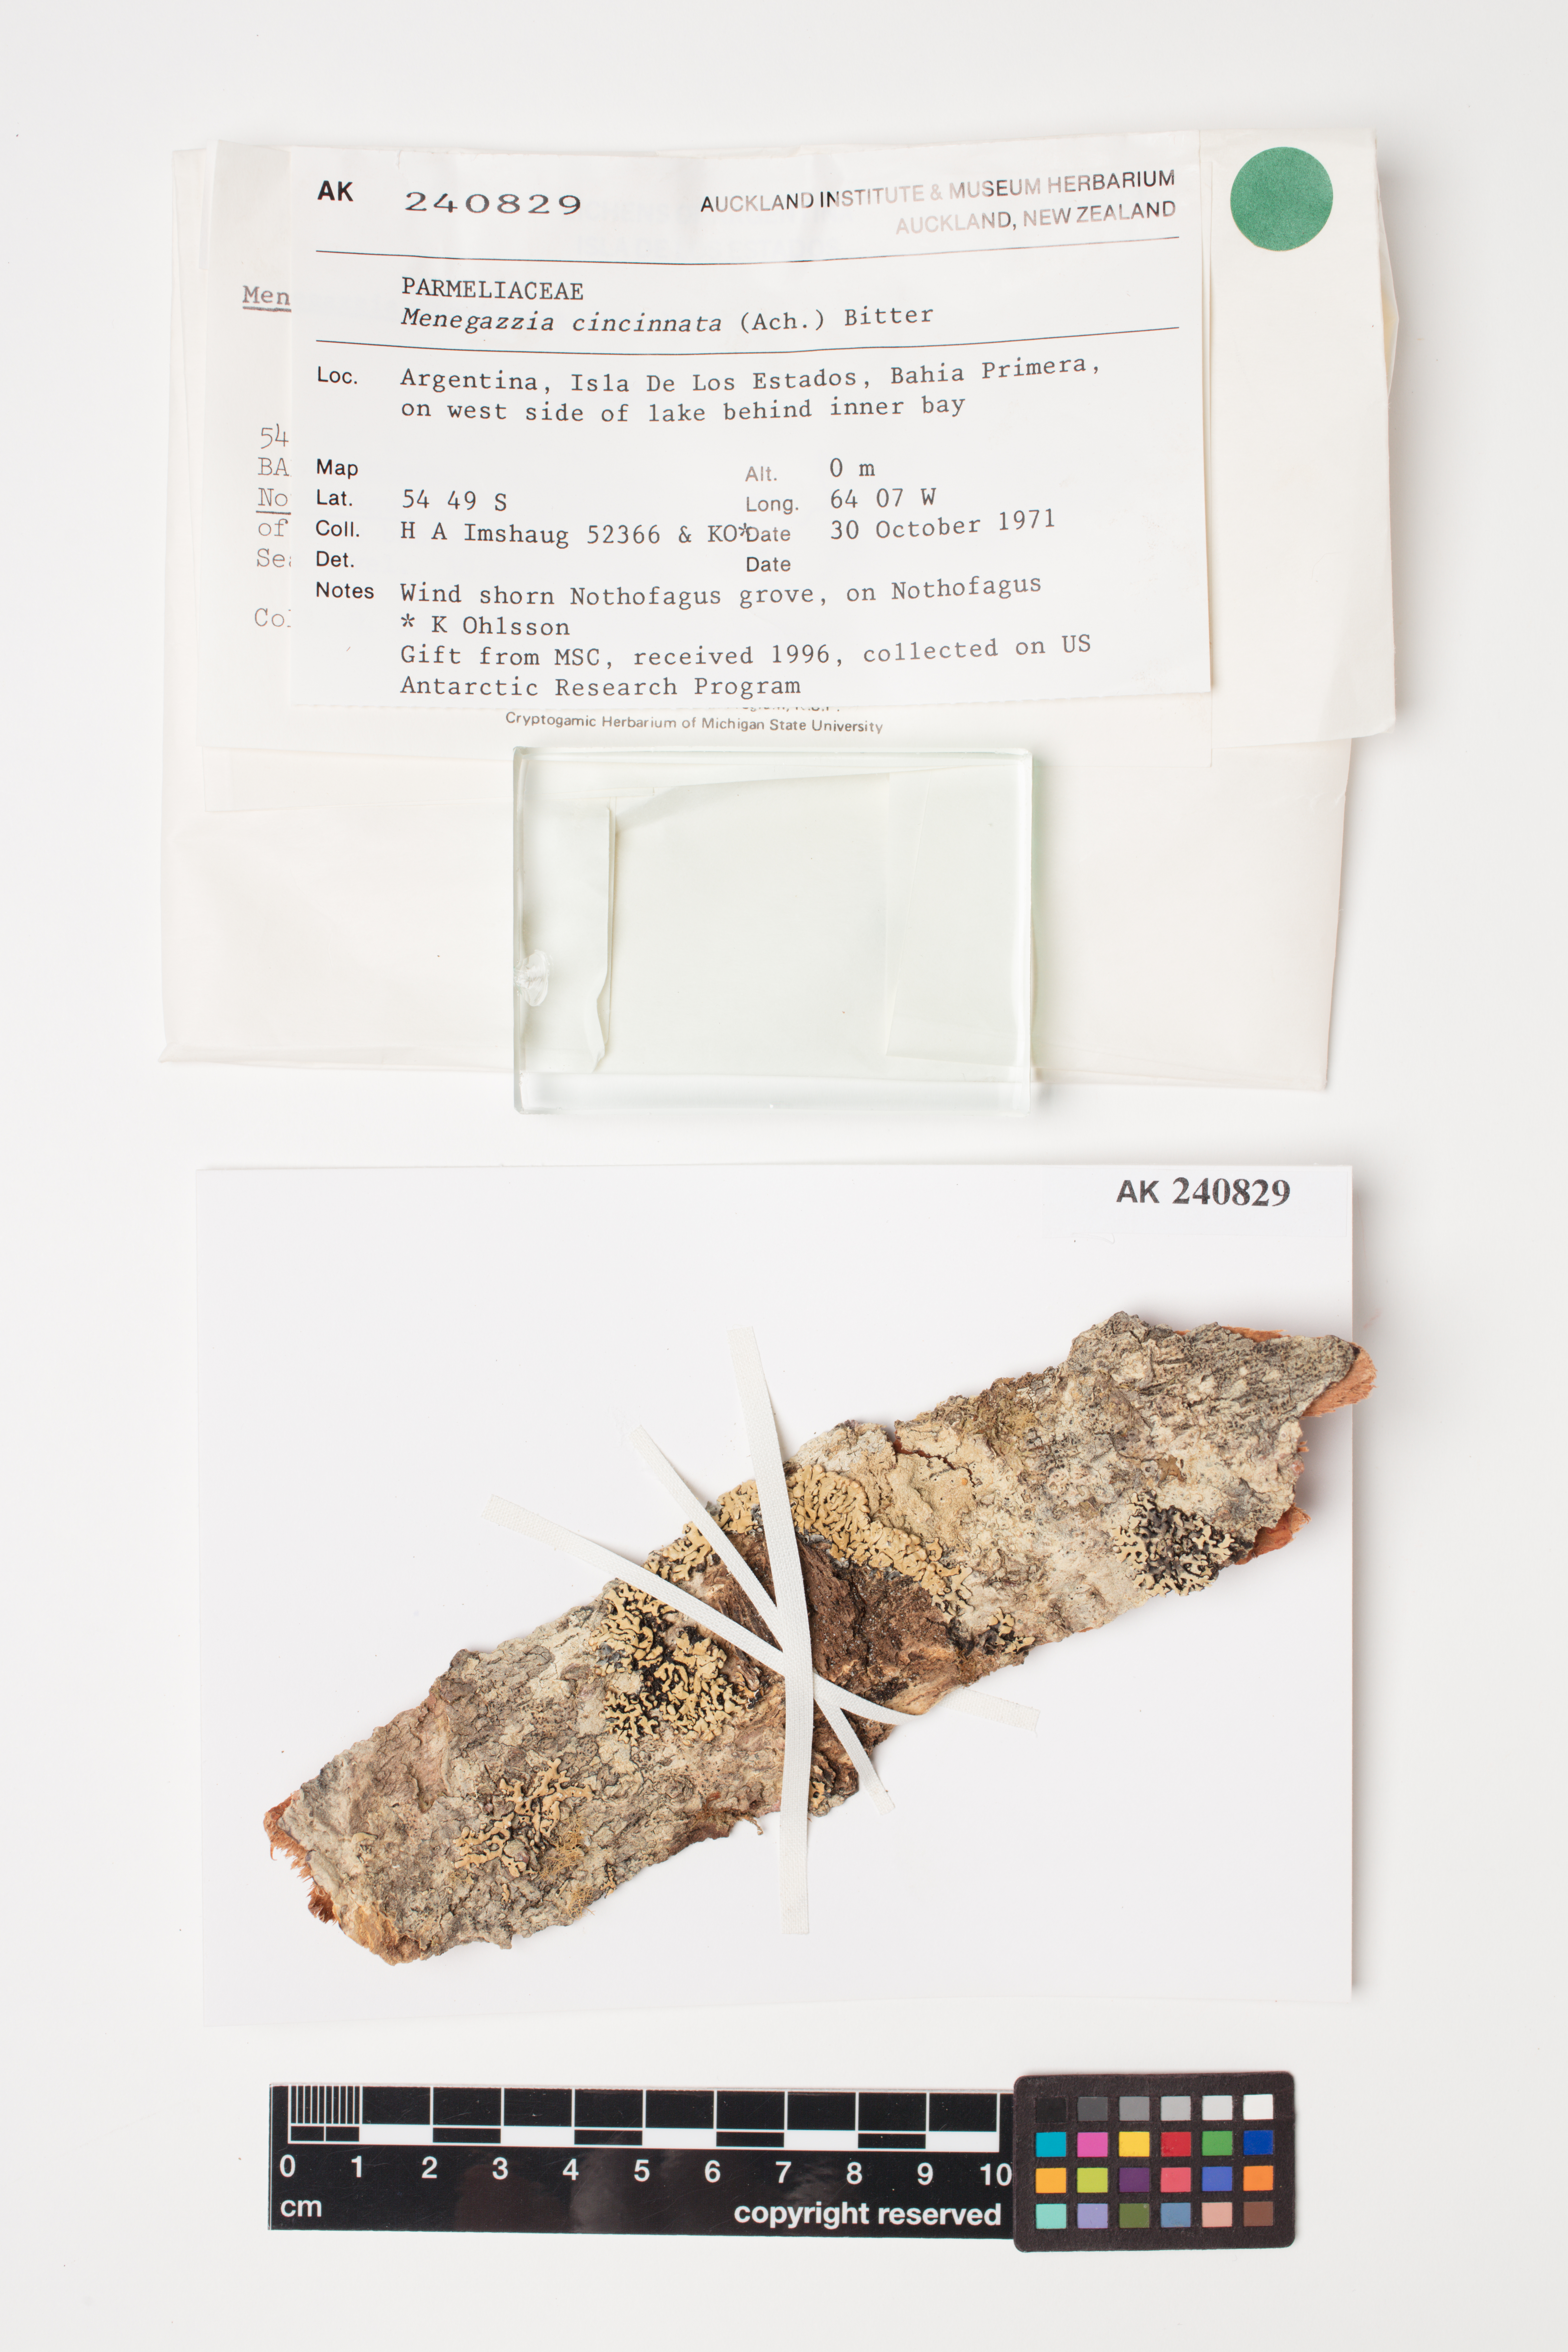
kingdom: Fungi
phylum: Ascomycota
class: Lecanoromycetes
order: Lecanorales
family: Parmeliaceae
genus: Menegazzia
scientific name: Menegazzia cincinnata
